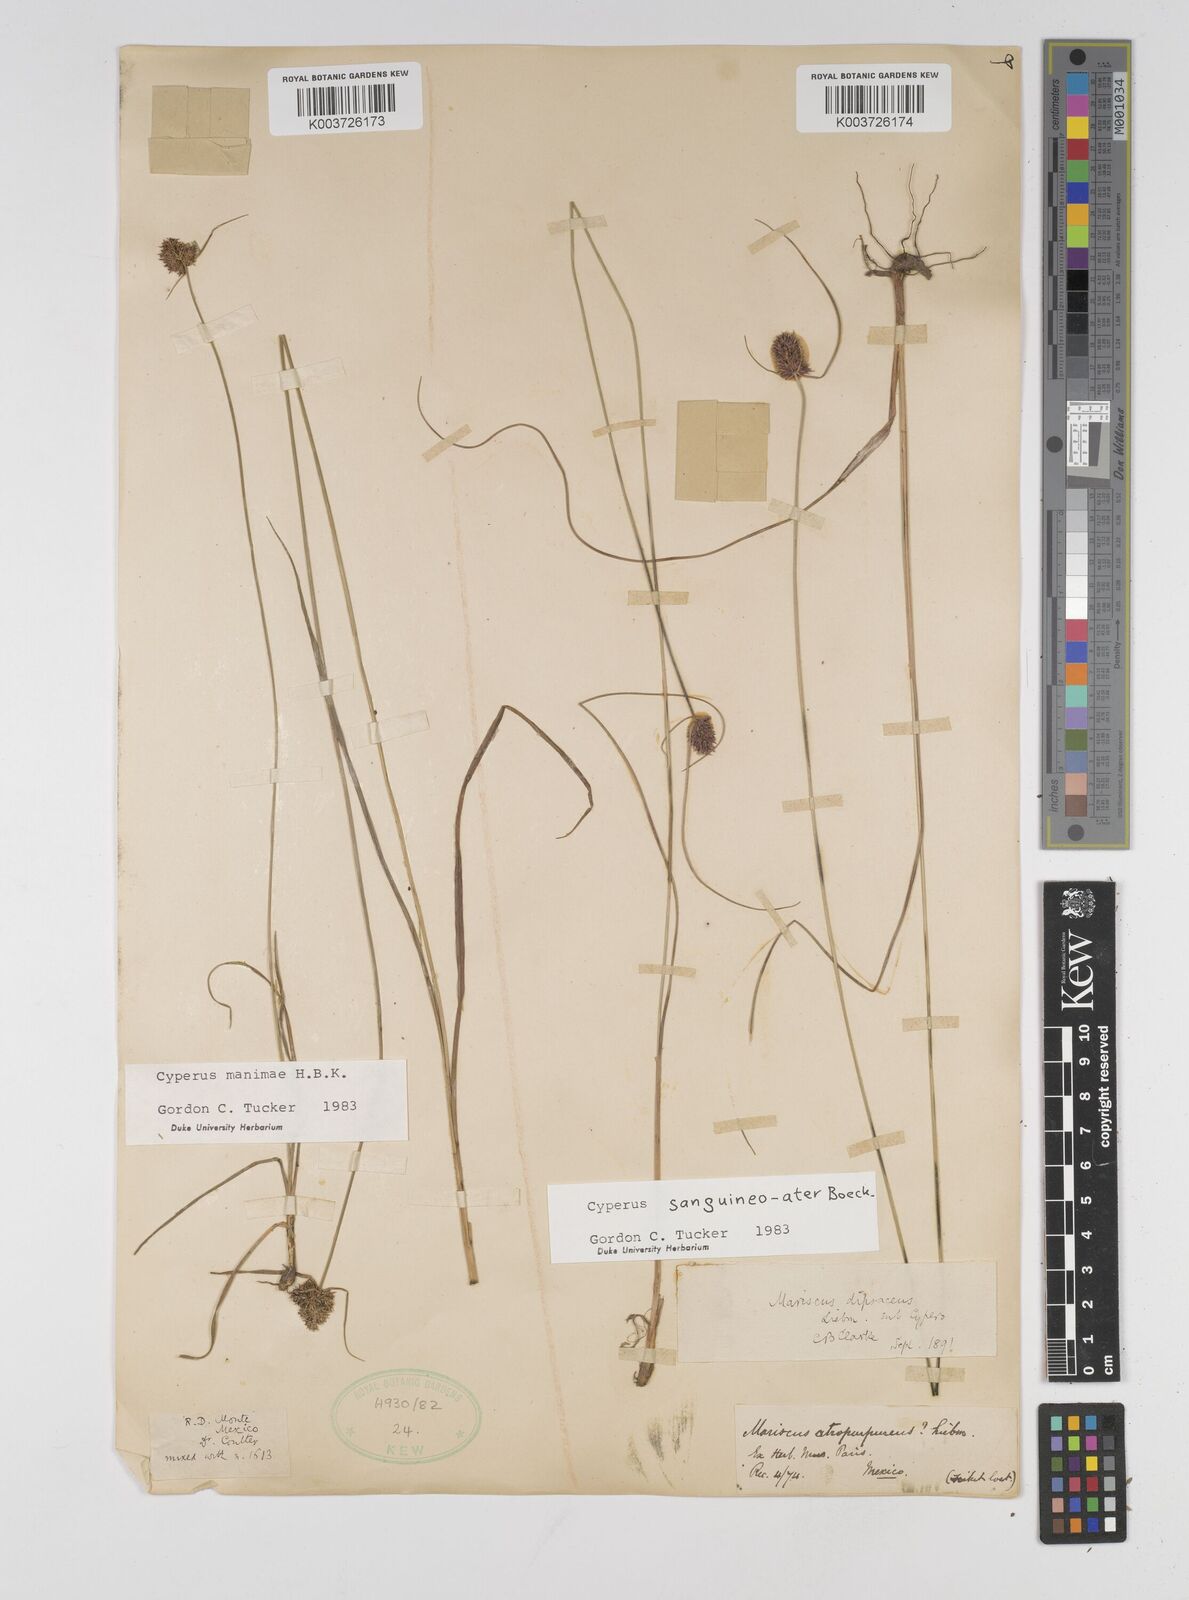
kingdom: Plantae
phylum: Tracheophyta
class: Liliopsida
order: Poales
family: Cyperaceae
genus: Cyperus
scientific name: Cyperus sanguineoater
